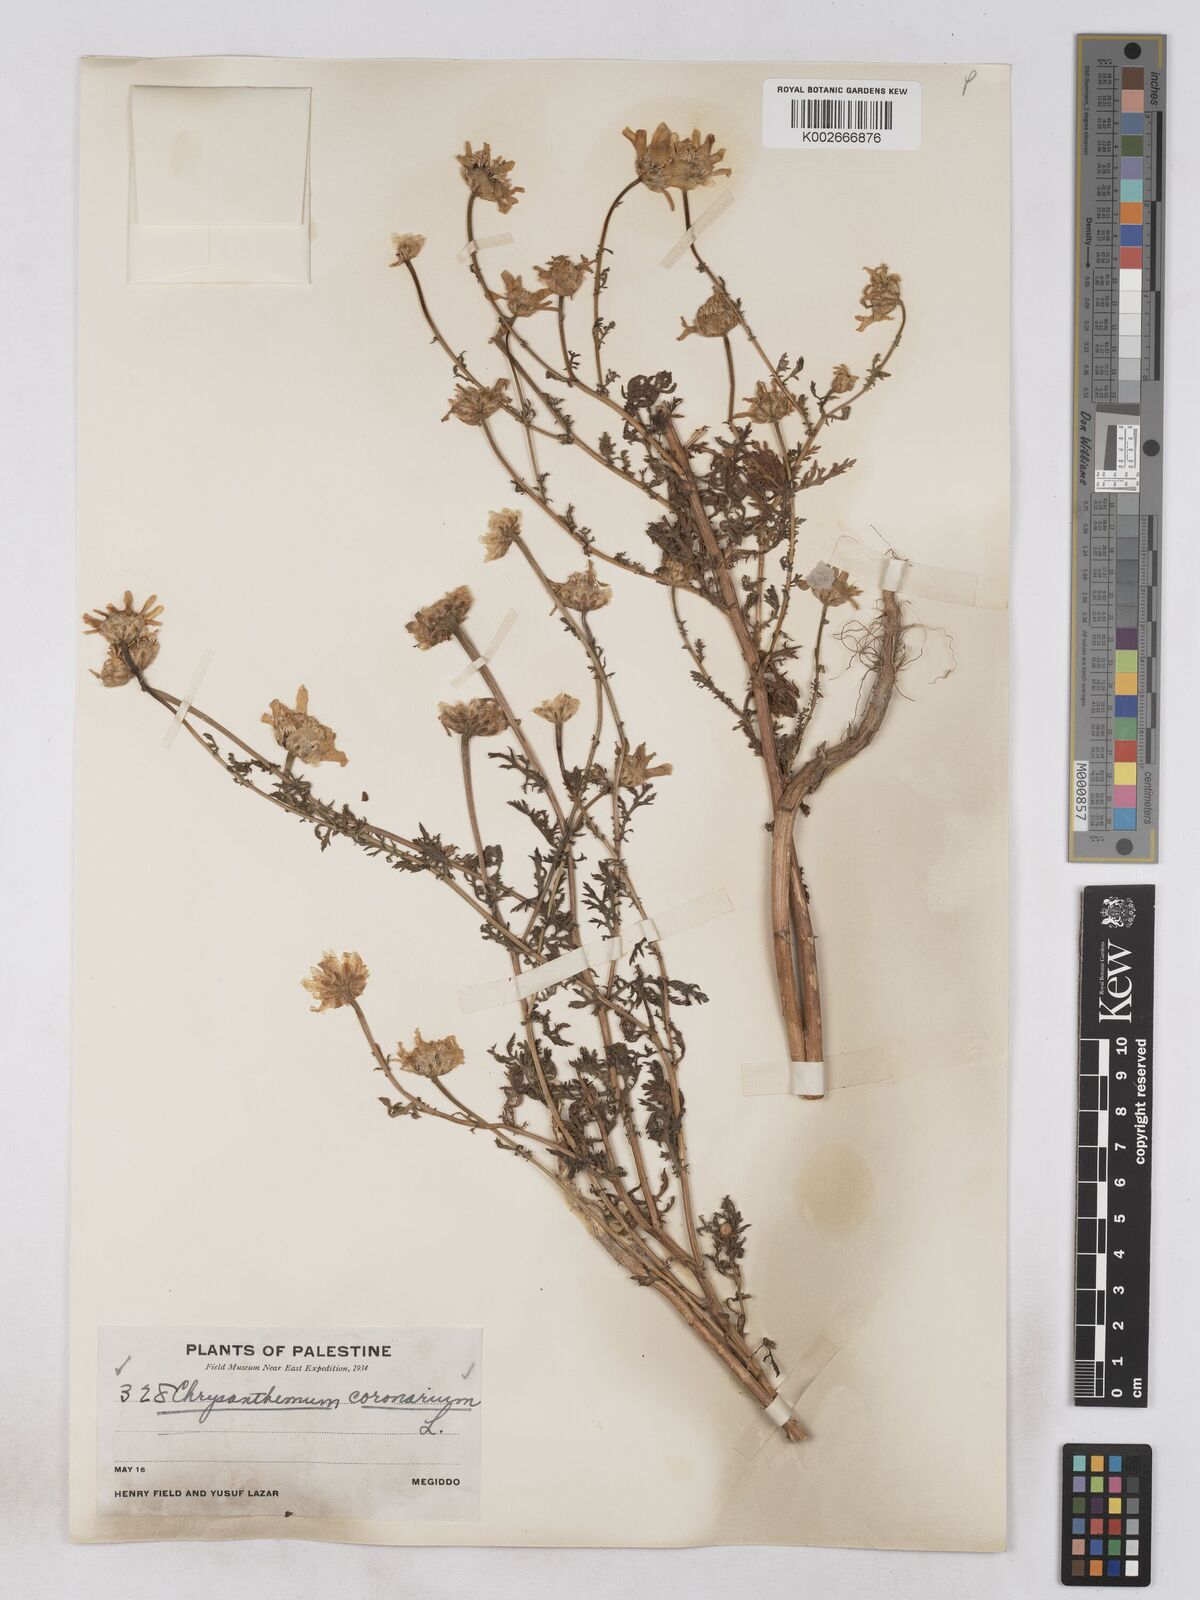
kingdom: Plantae
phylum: Tracheophyta
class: Magnoliopsida
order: Asterales
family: Asteraceae
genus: Glebionis
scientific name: Glebionis coronaria
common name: Crowndaisy
